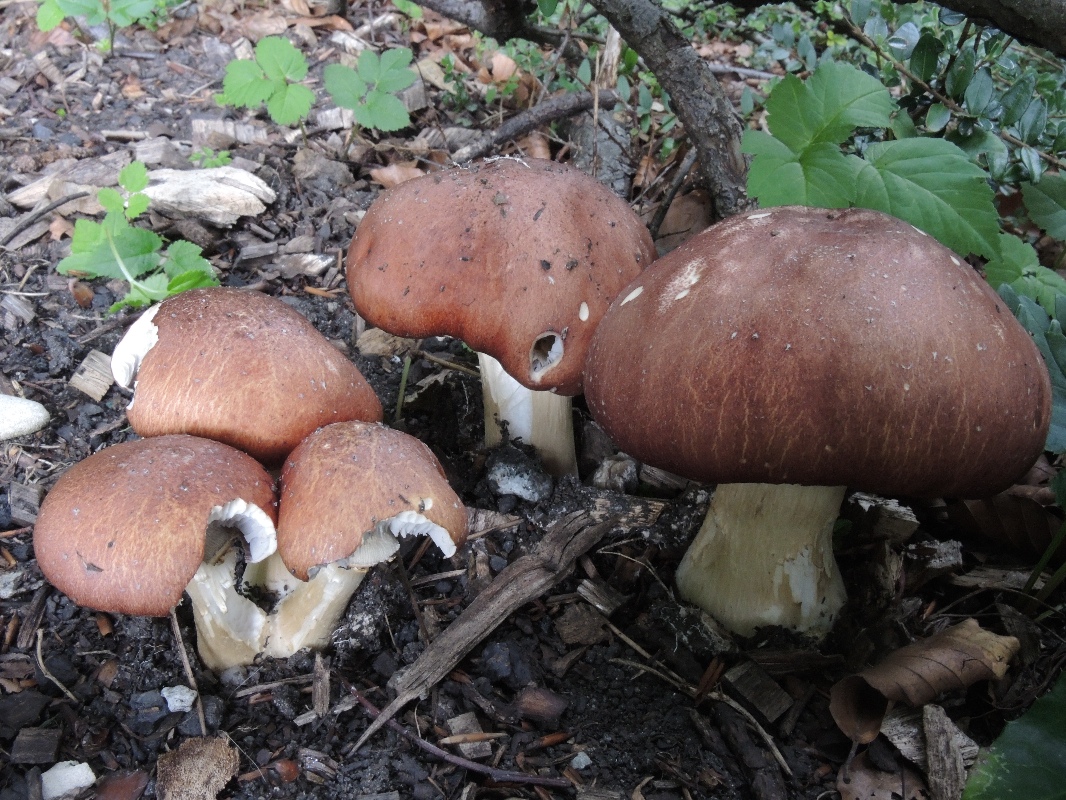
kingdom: Fungi
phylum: Basidiomycota
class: Agaricomycetes
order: Agaricales
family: Strophariaceae
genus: Stropharia
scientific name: Stropharia rugosoannulata
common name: rødbrun bredblad
